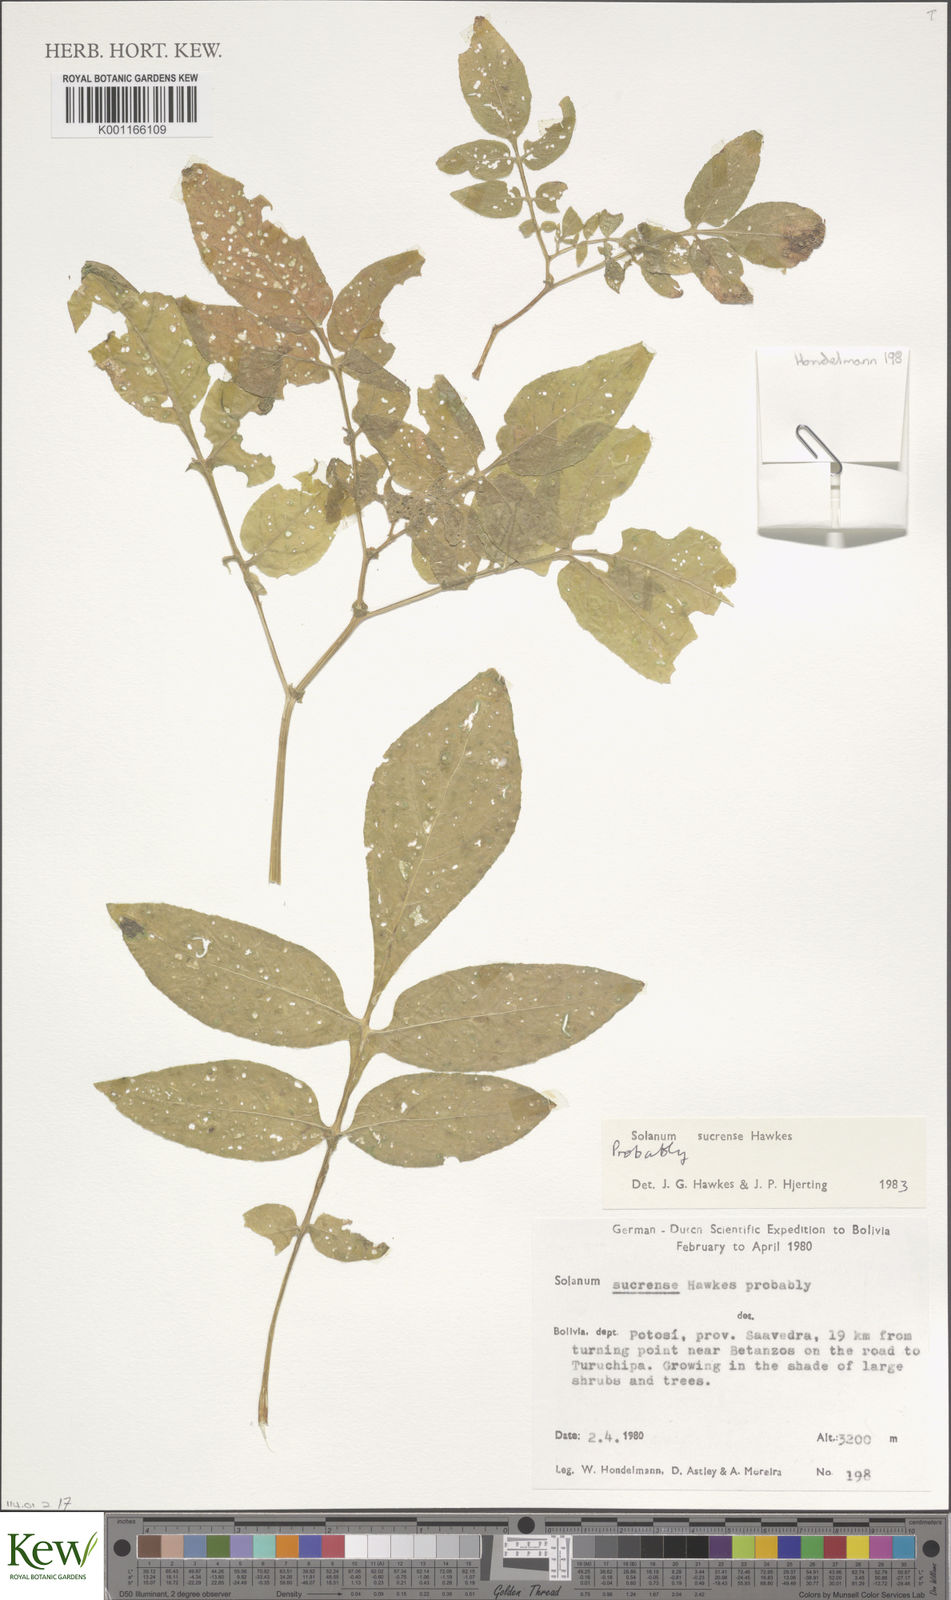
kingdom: Plantae
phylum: Tracheophyta
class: Magnoliopsida
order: Solanales
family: Solanaceae
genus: Solanum
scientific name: Solanum brevicaule
